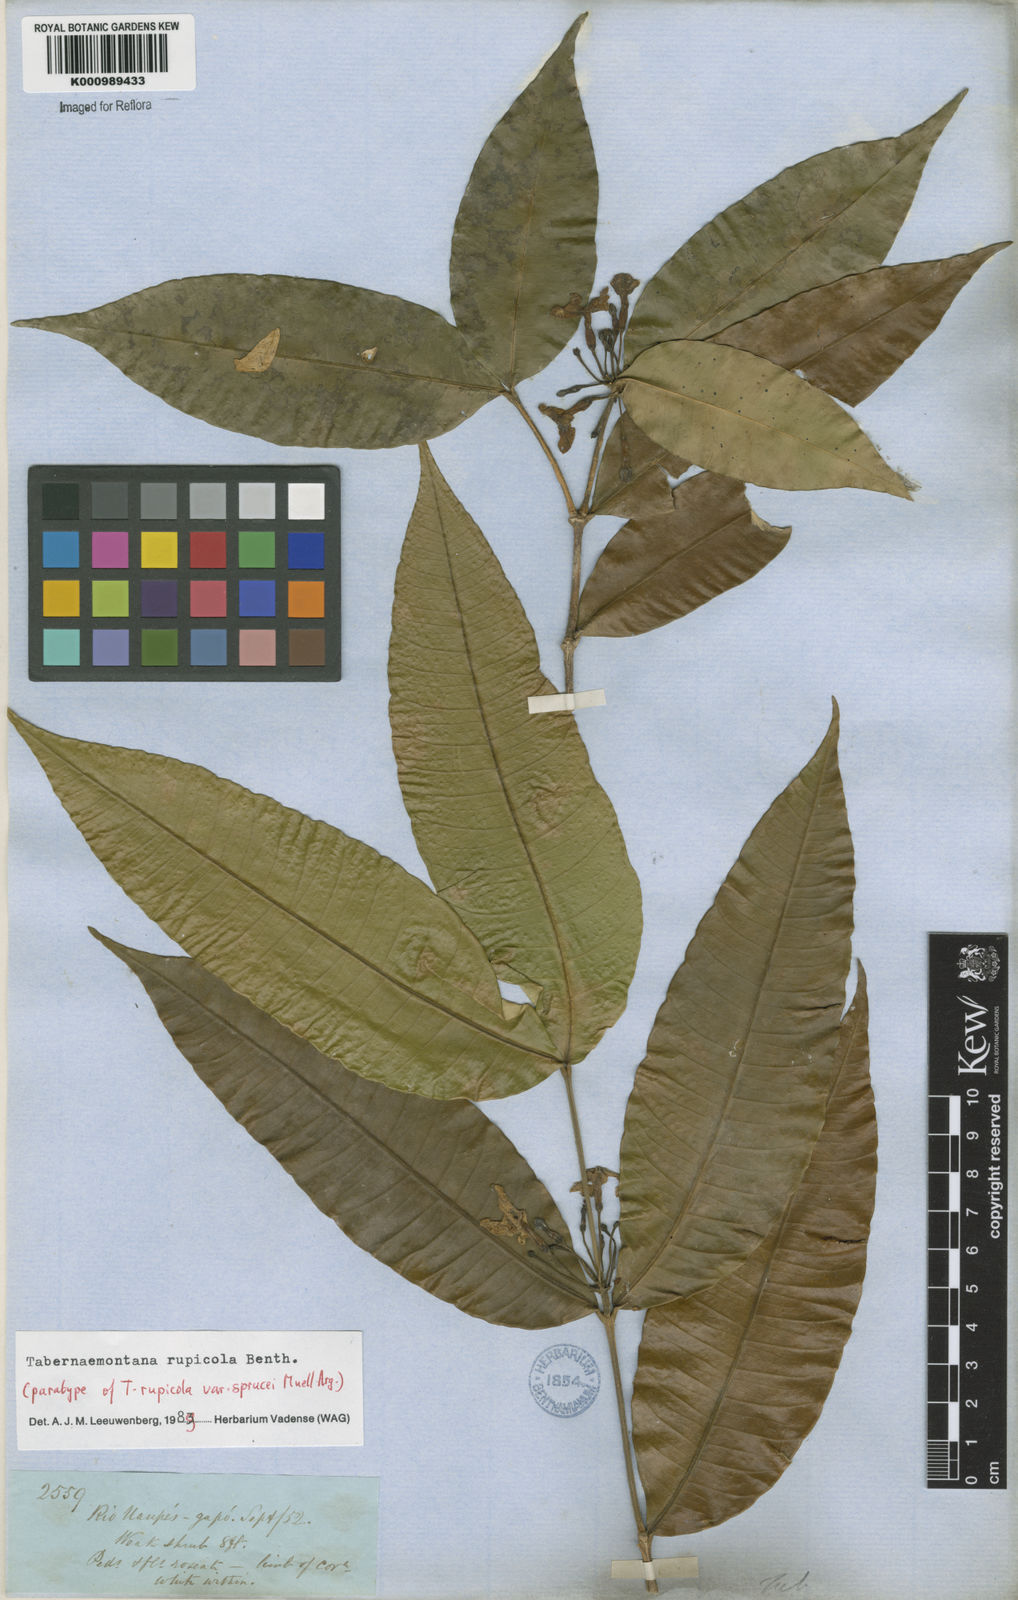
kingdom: Plantae
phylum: Tracheophyta
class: Magnoliopsida
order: Gentianales
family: Apocynaceae
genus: Tabernaemontana
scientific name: Tabernaemontana rupicola
